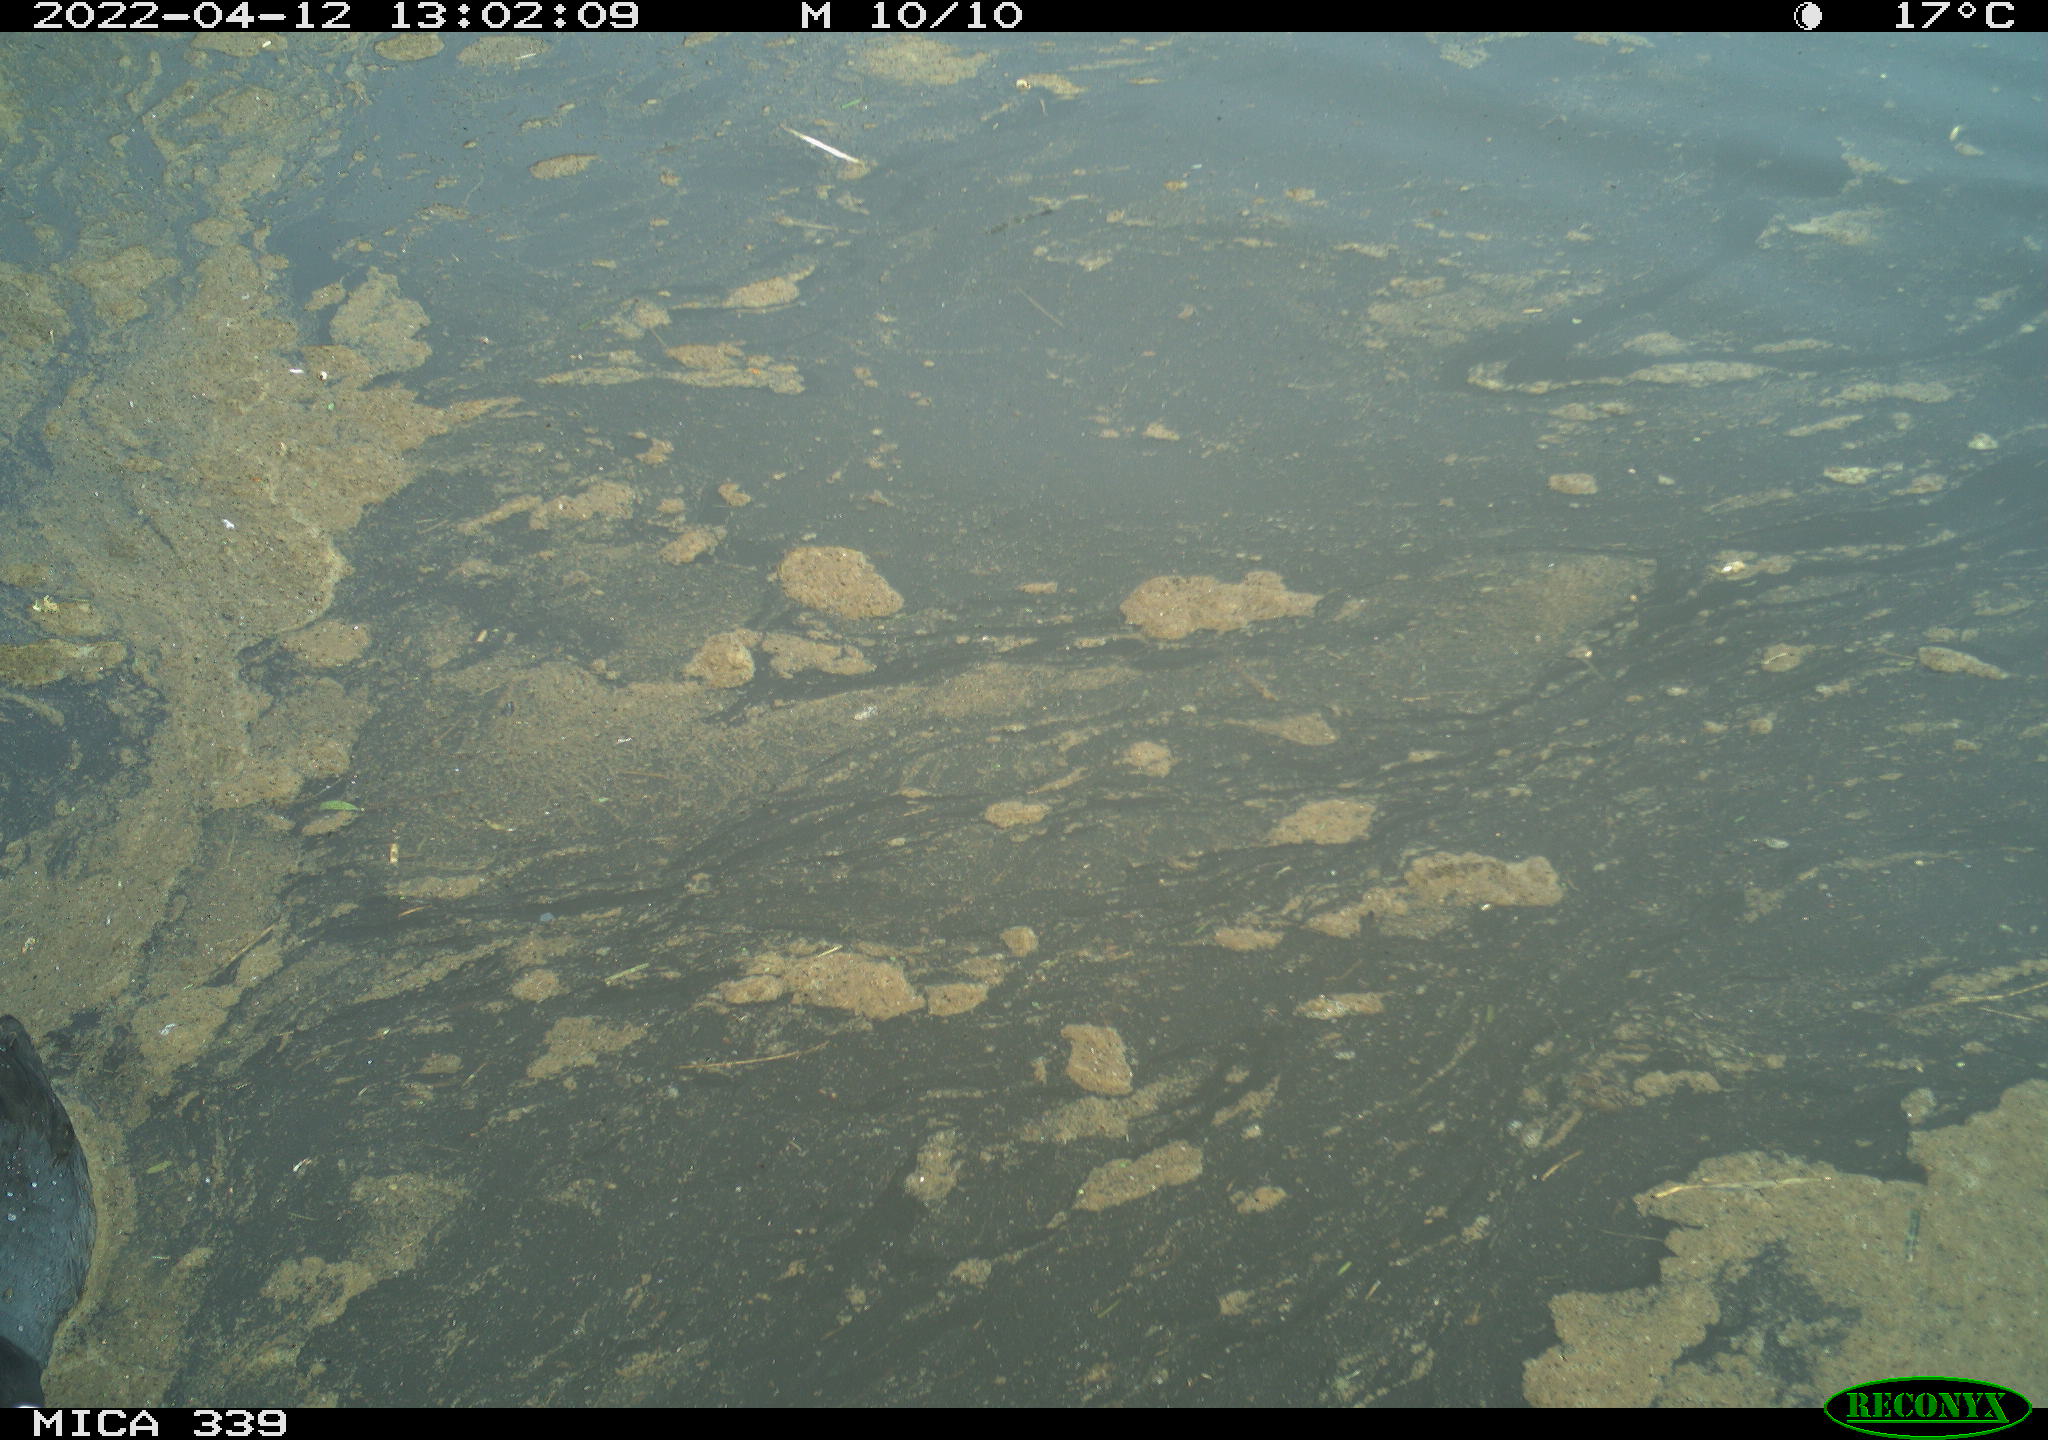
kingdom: Animalia
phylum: Chordata
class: Aves
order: Gruiformes
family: Rallidae
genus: Fulica
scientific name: Fulica atra
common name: Eurasian coot
